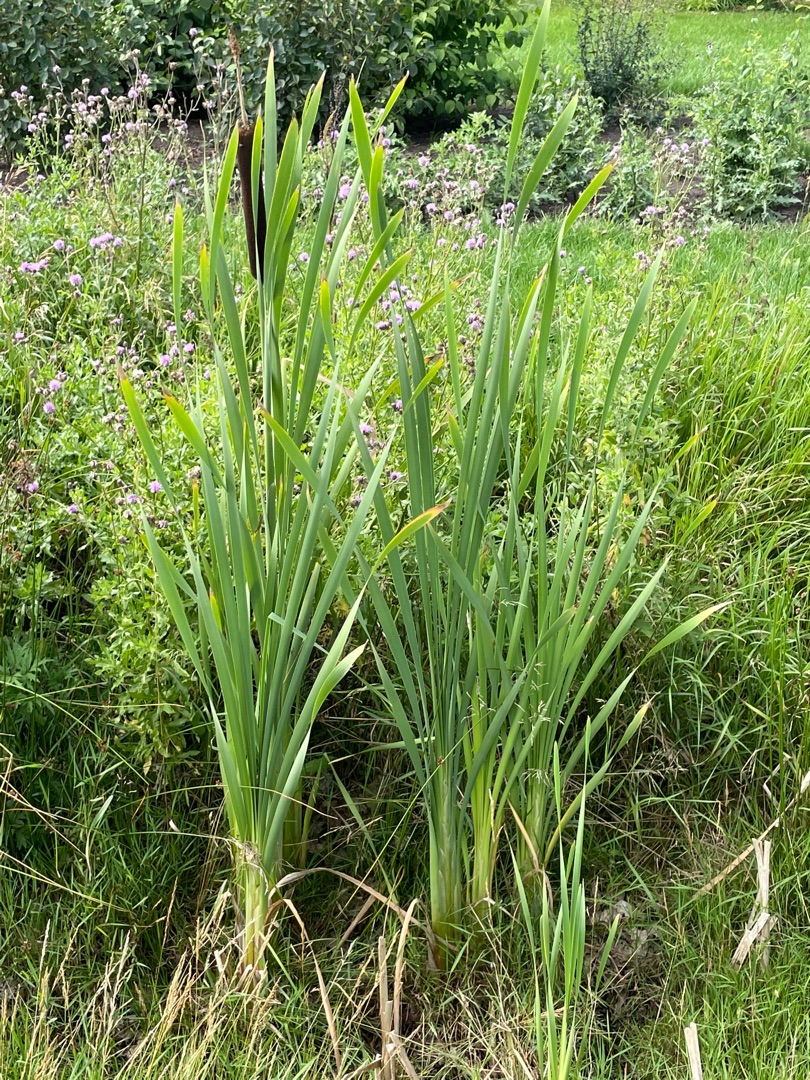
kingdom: Plantae
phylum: Tracheophyta
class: Liliopsida
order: Poales
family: Typhaceae
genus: Typha
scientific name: Typha latifolia
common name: Bredbladet dunhammer
